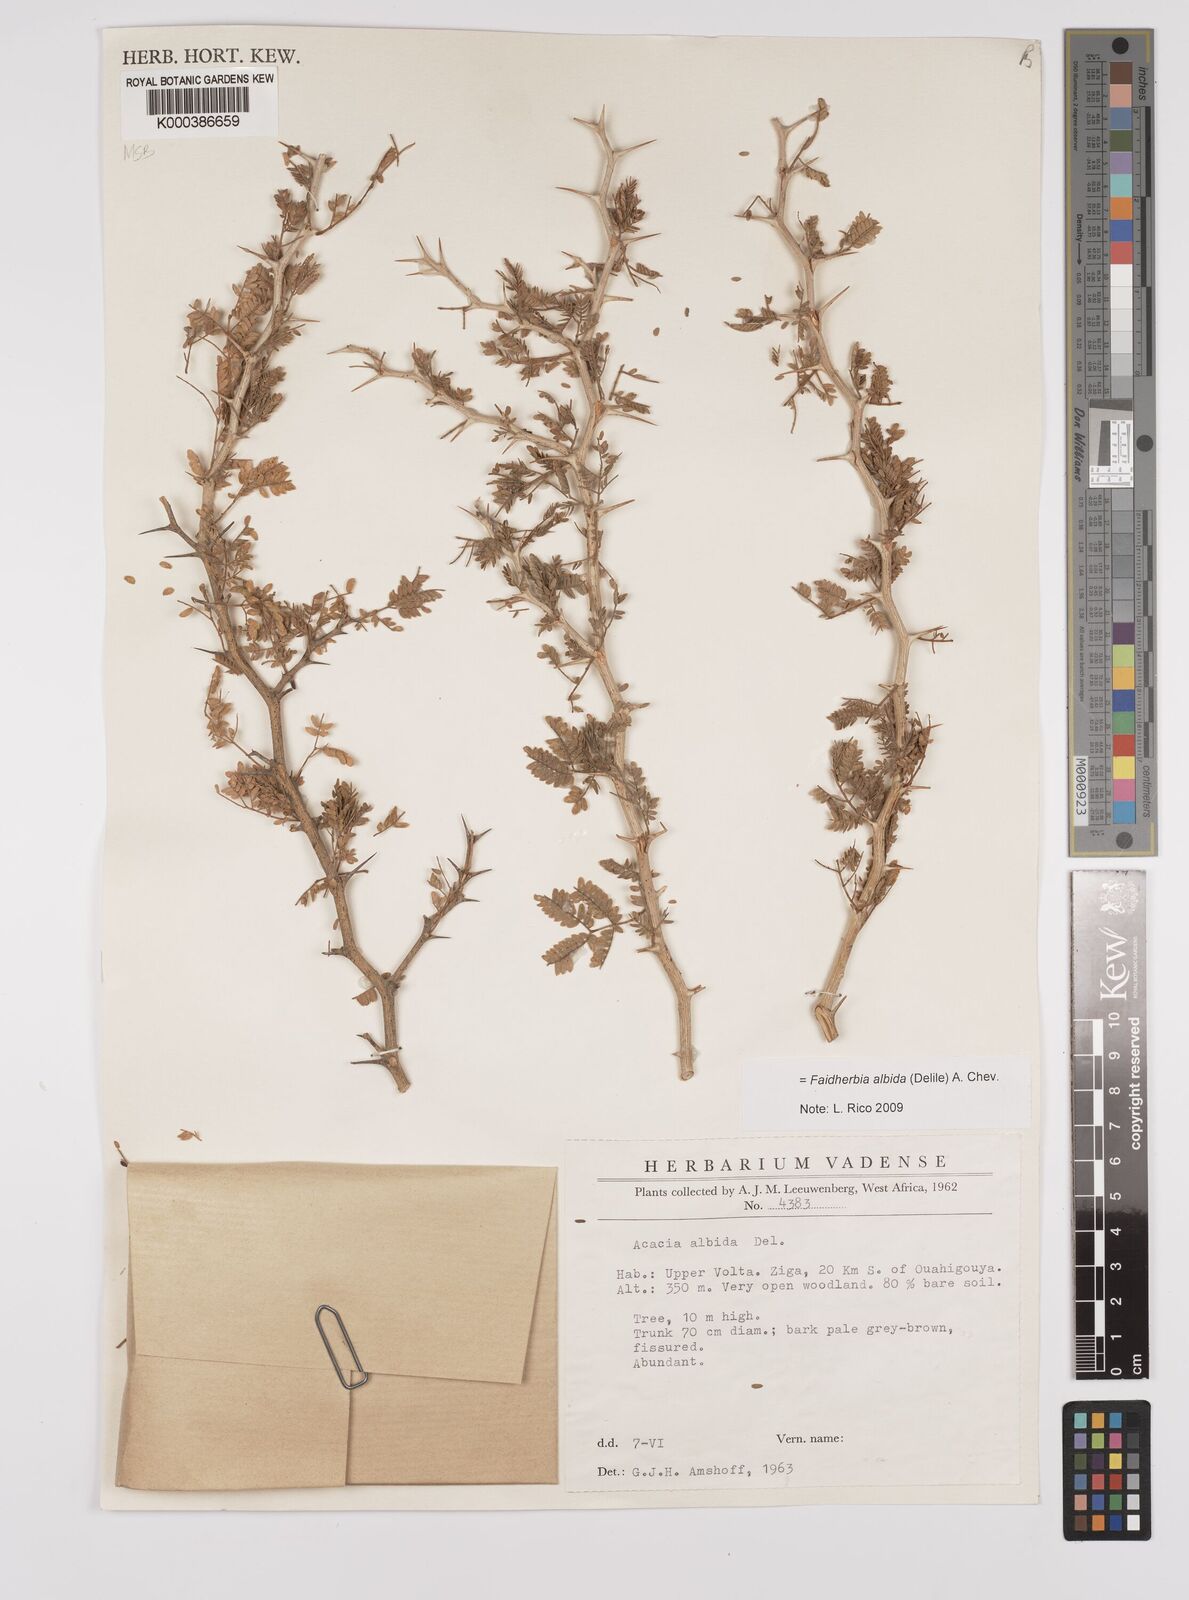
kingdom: Plantae
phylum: Tracheophyta
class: Magnoliopsida
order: Fabales
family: Fabaceae
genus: Faidherbia
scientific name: Faidherbia albida
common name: Anatree
